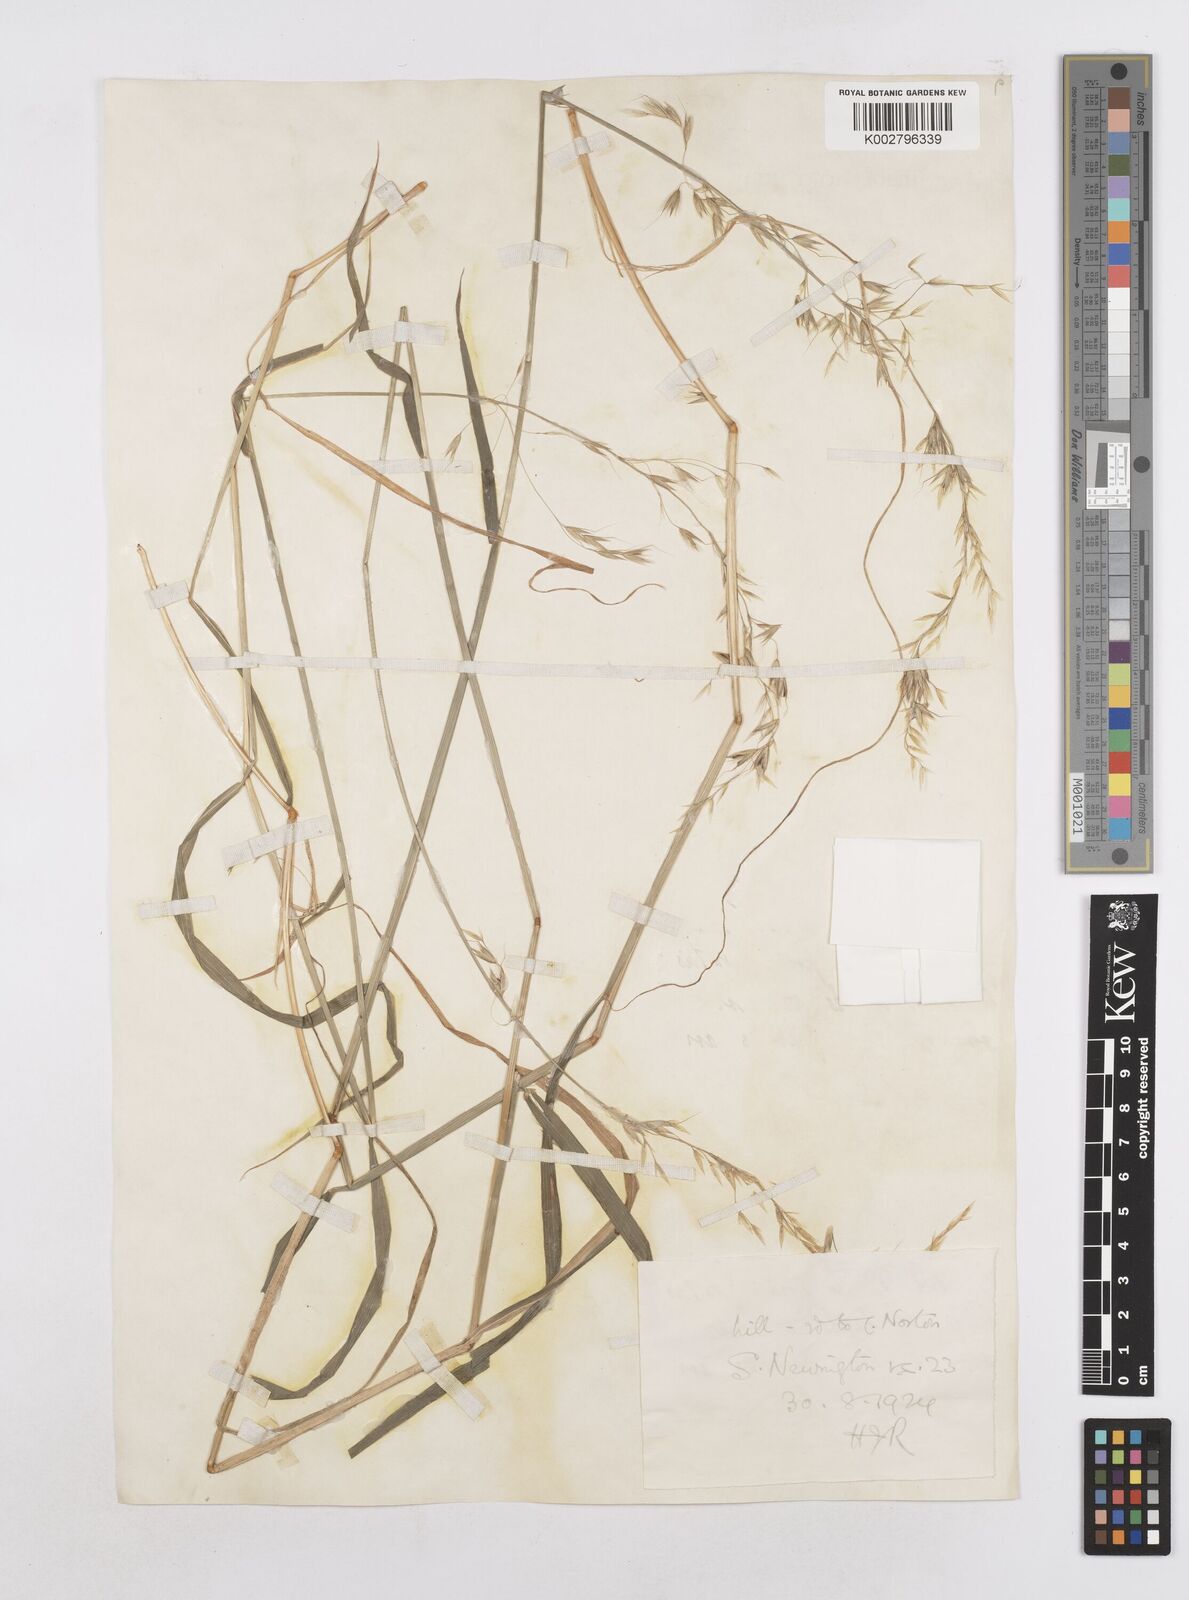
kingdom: Plantae
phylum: Tracheophyta
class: Liliopsida
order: Poales
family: Poaceae
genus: Arrhenatherum
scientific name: Arrhenatherum elatius
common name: Tall oatgrass
